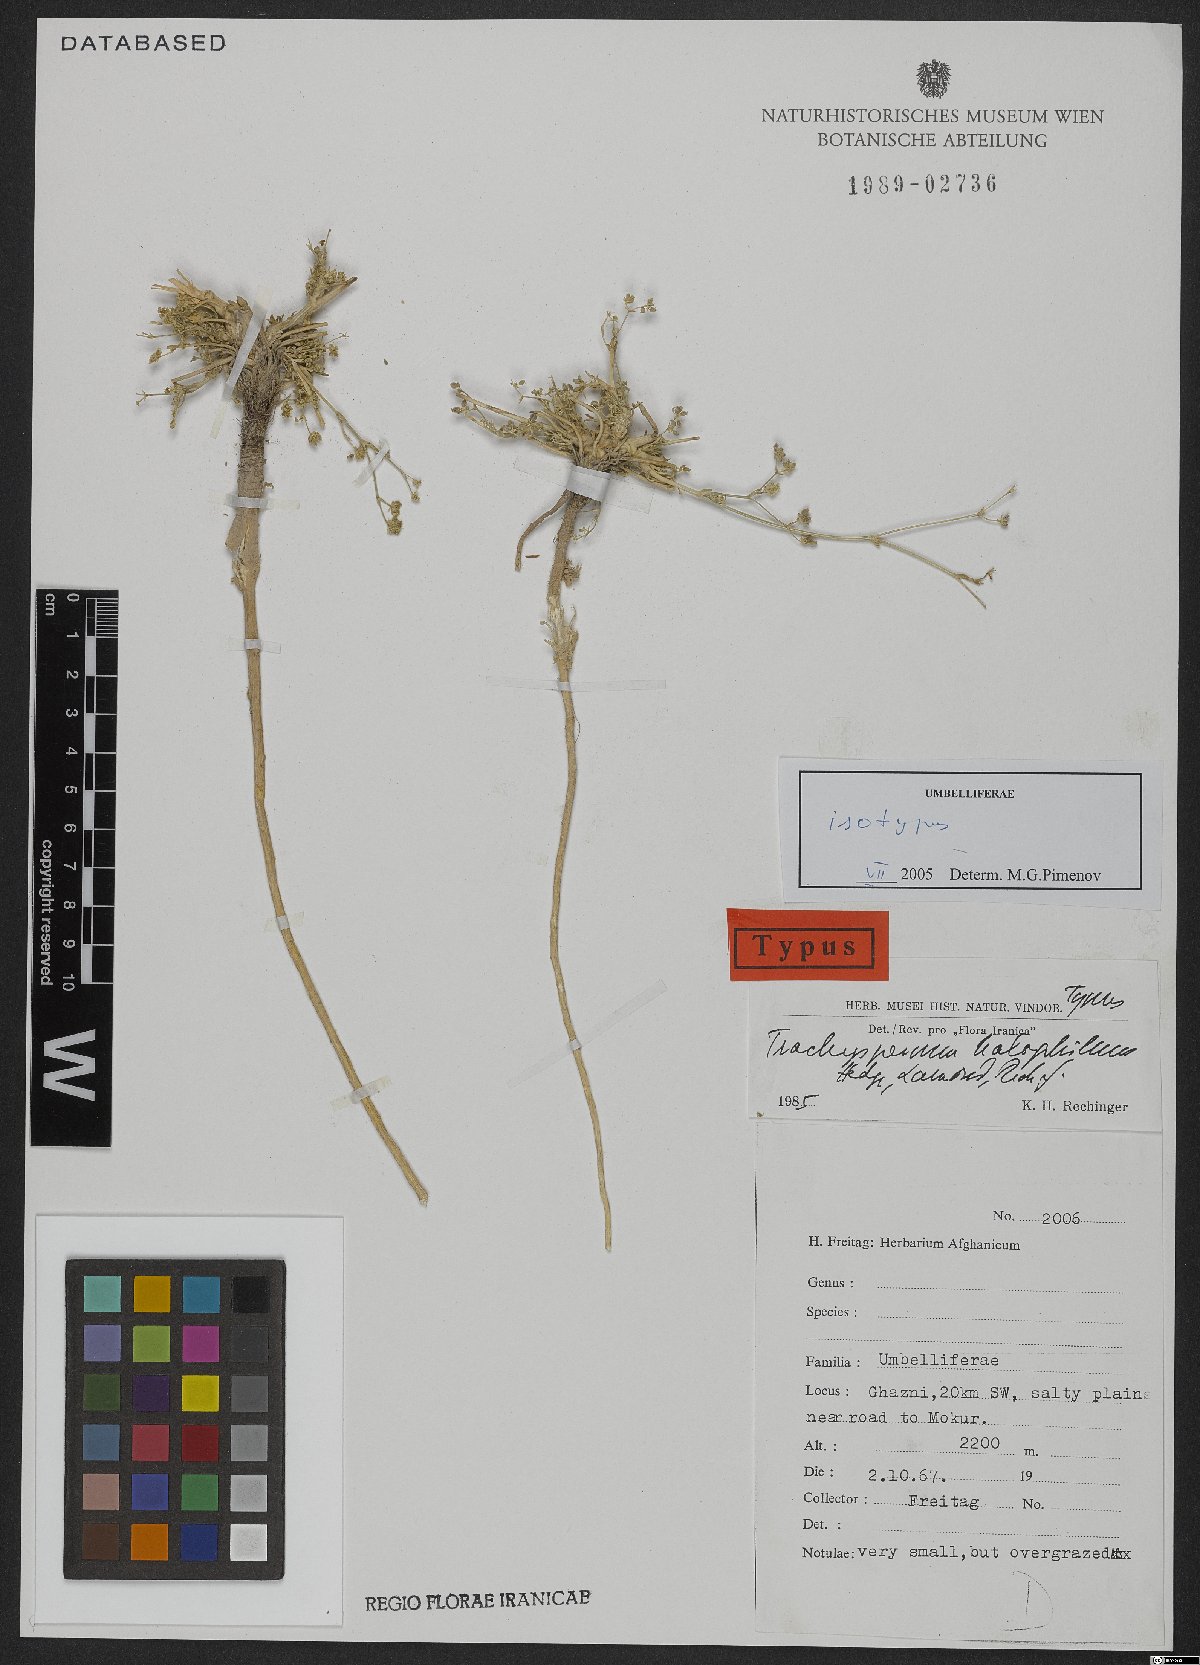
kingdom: Plantae
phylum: Tracheophyta
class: Magnoliopsida
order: Apiales
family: Apiaceae
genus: Trachyspermum
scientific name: Trachyspermum halophilum
